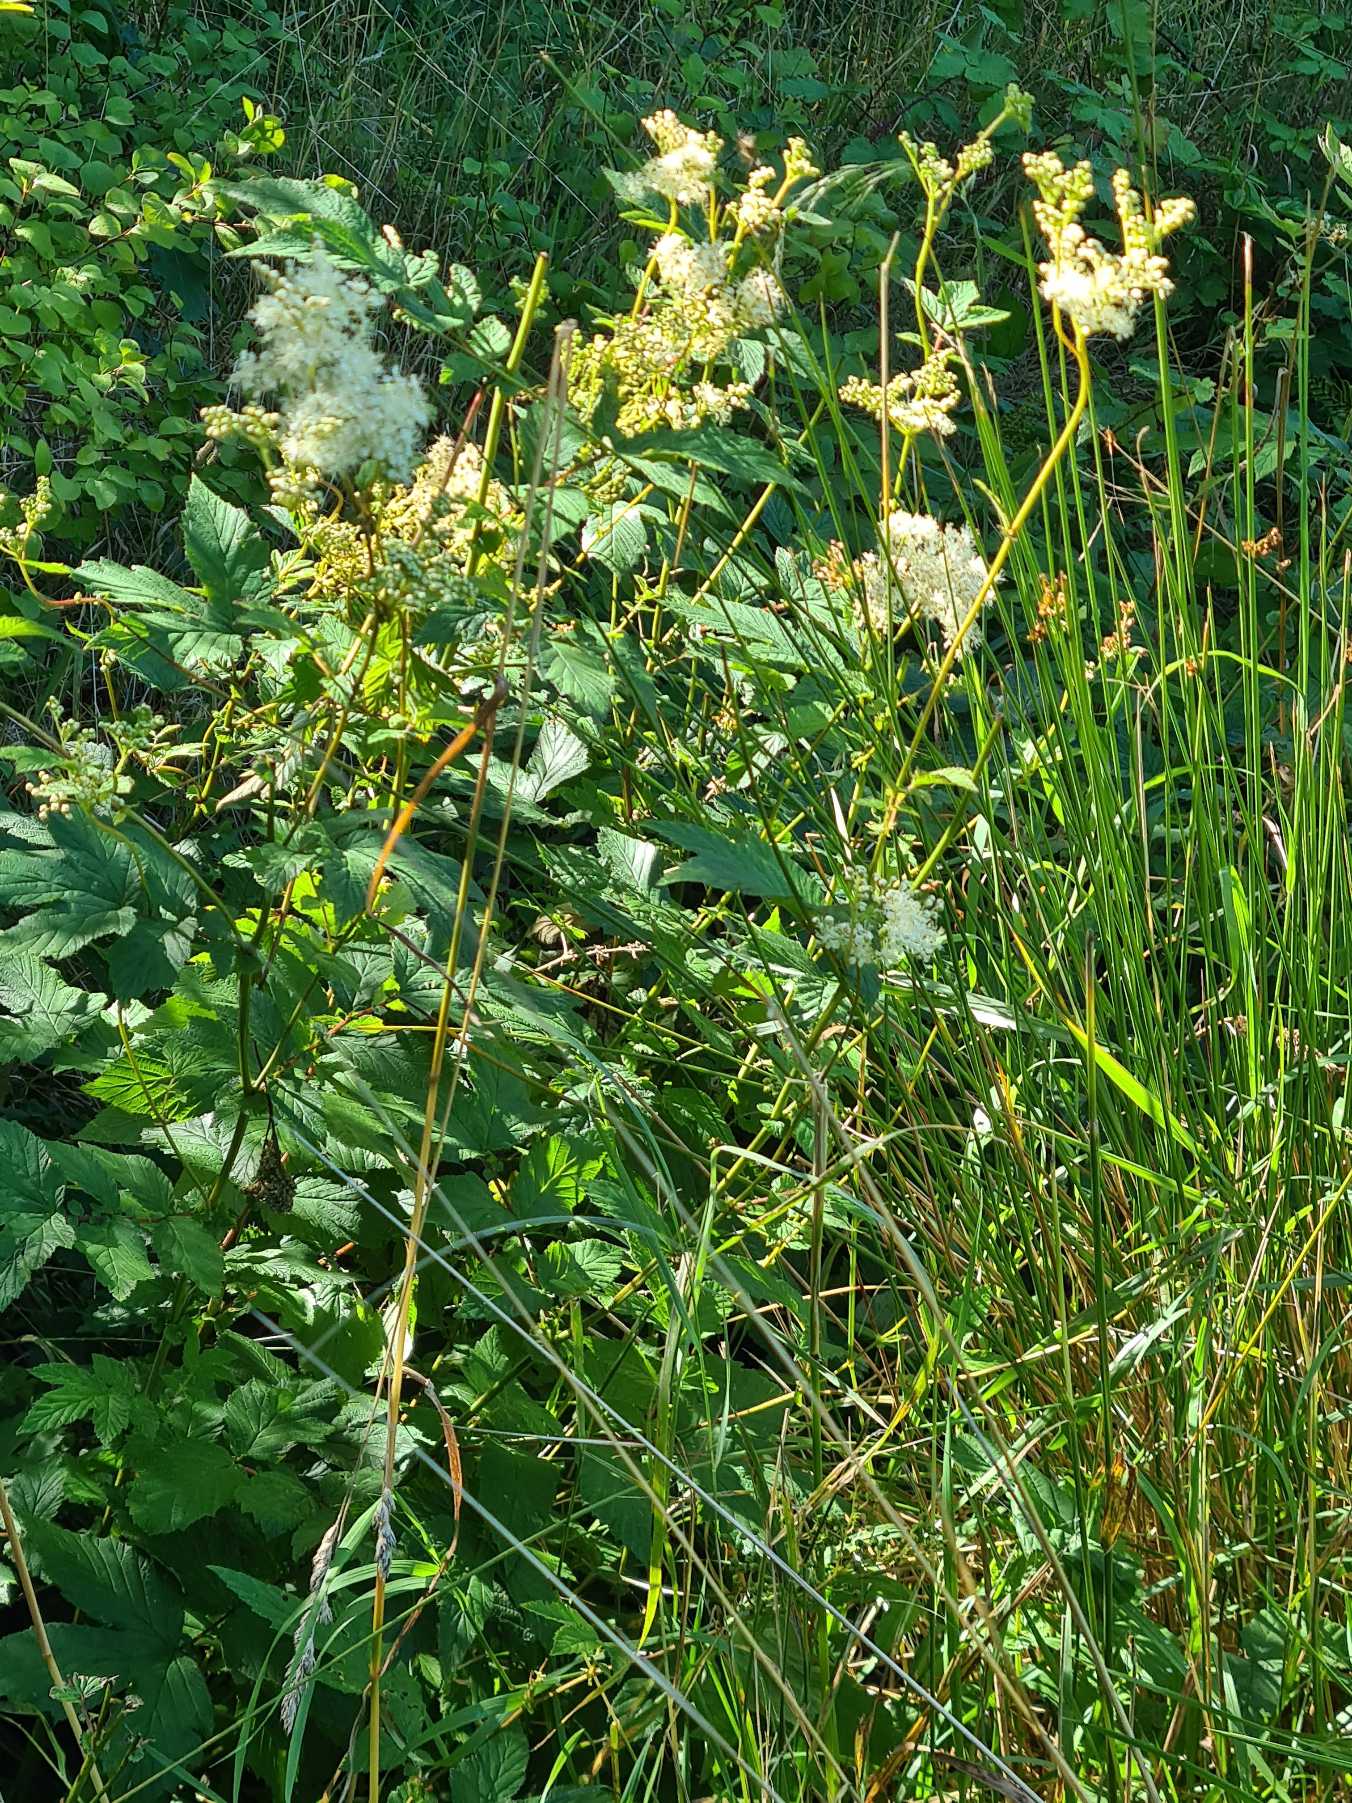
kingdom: Plantae
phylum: Tracheophyta
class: Magnoliopsida
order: Rosales
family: Rosaceae
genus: Filipendula
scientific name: Filipendula ulmaria
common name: Almindelig mjødurt
